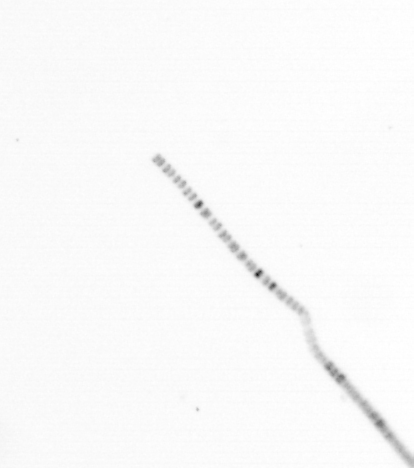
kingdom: Chromista
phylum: Ochrophyta
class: Bacillariophyceae
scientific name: Bacillariophyceae
